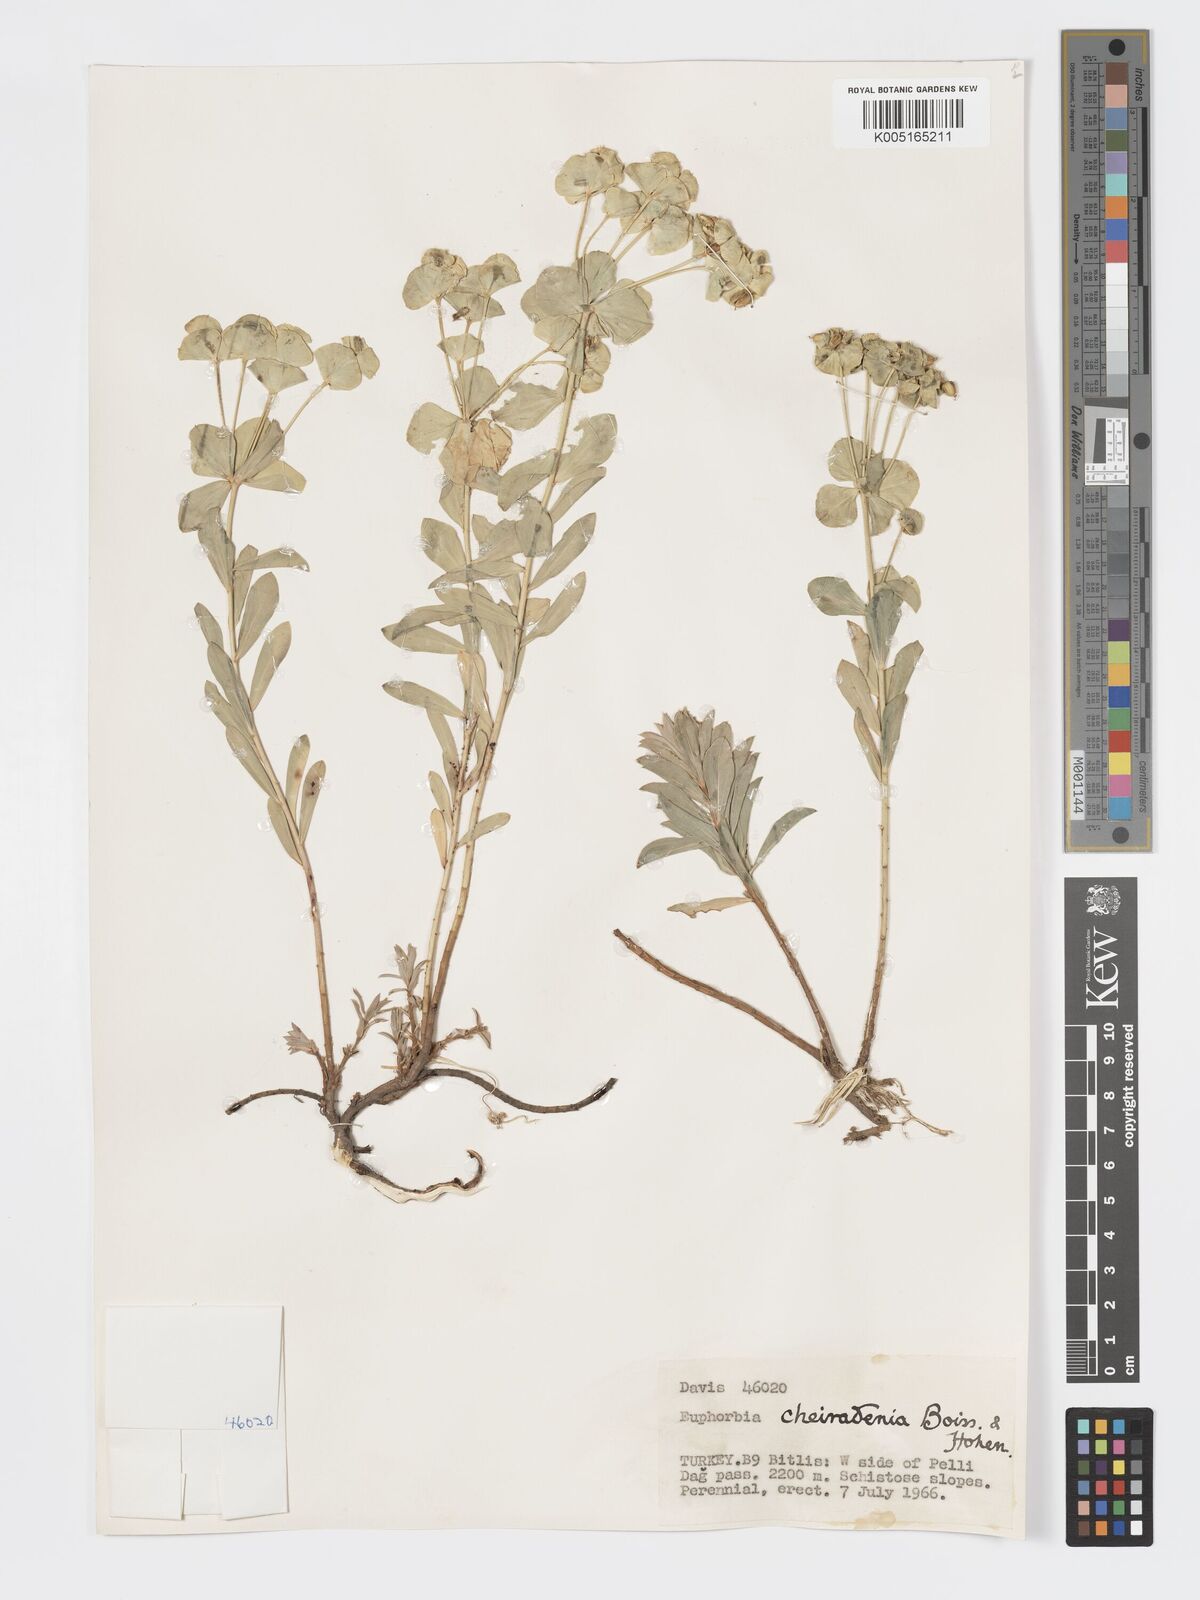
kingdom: Plantae
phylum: Tracheophyta
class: Magnoliopsida
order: Malpighiales
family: Euphorbiaceae
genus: Euphorbia
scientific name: Euphorbia cheiradenia
